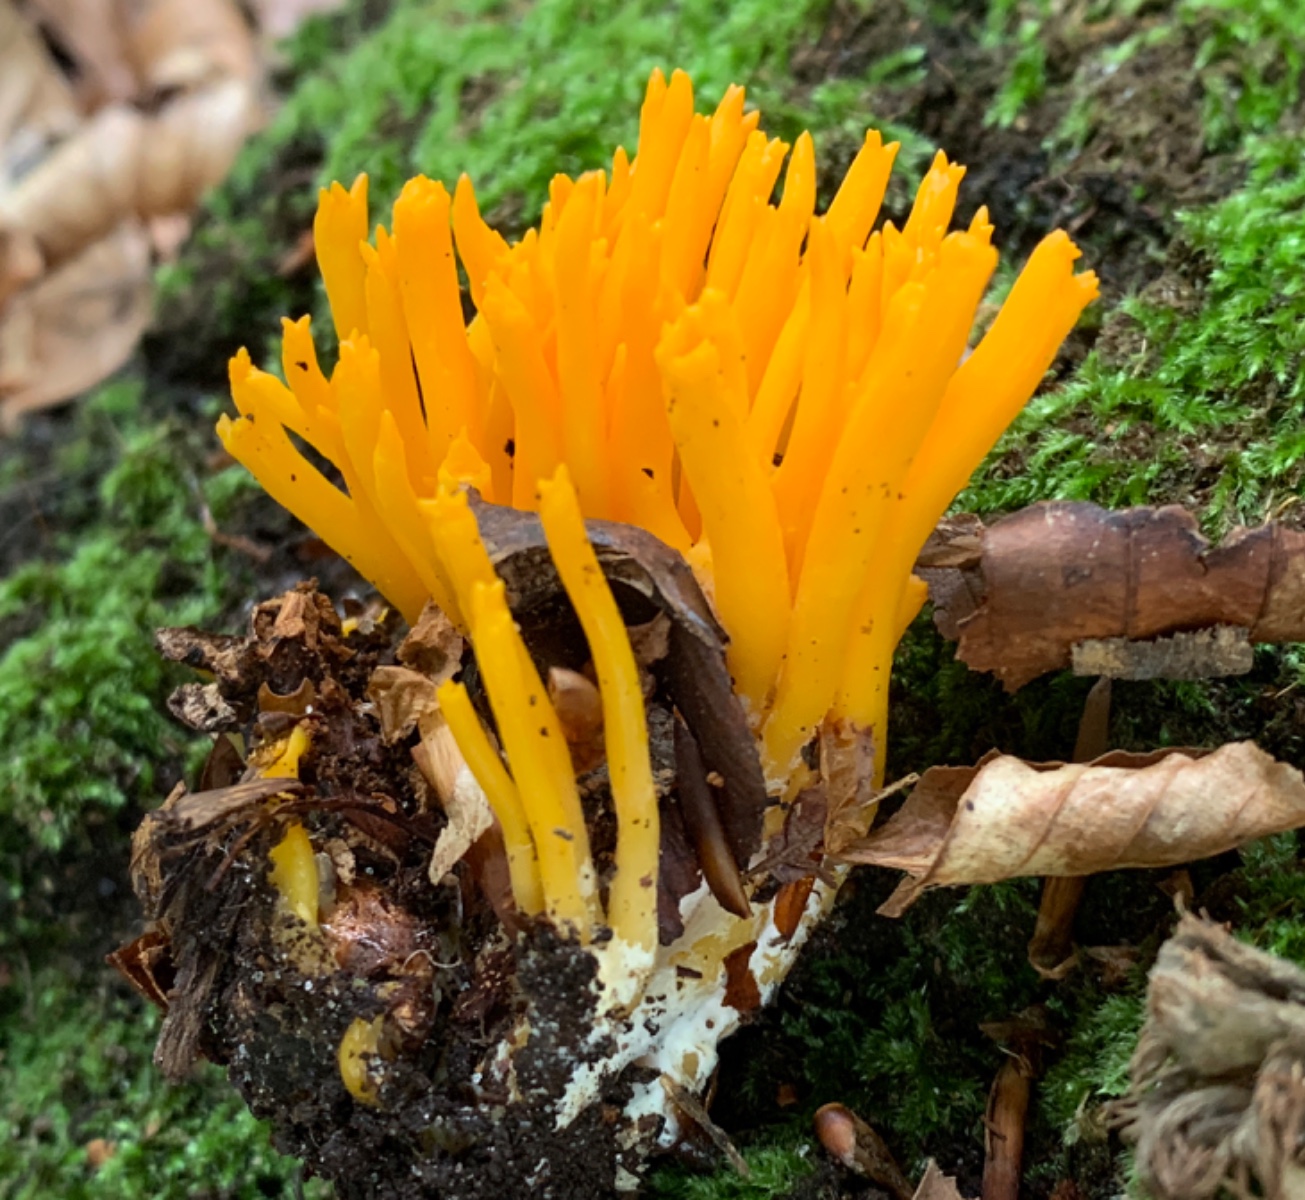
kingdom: Fungi
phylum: Basidiomycota
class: Dacrymycetes
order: Dacrymycetales
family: Dacrymycetaceae
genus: Calocera
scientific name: Calocera viscosa
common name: almindelig guldgaffel
